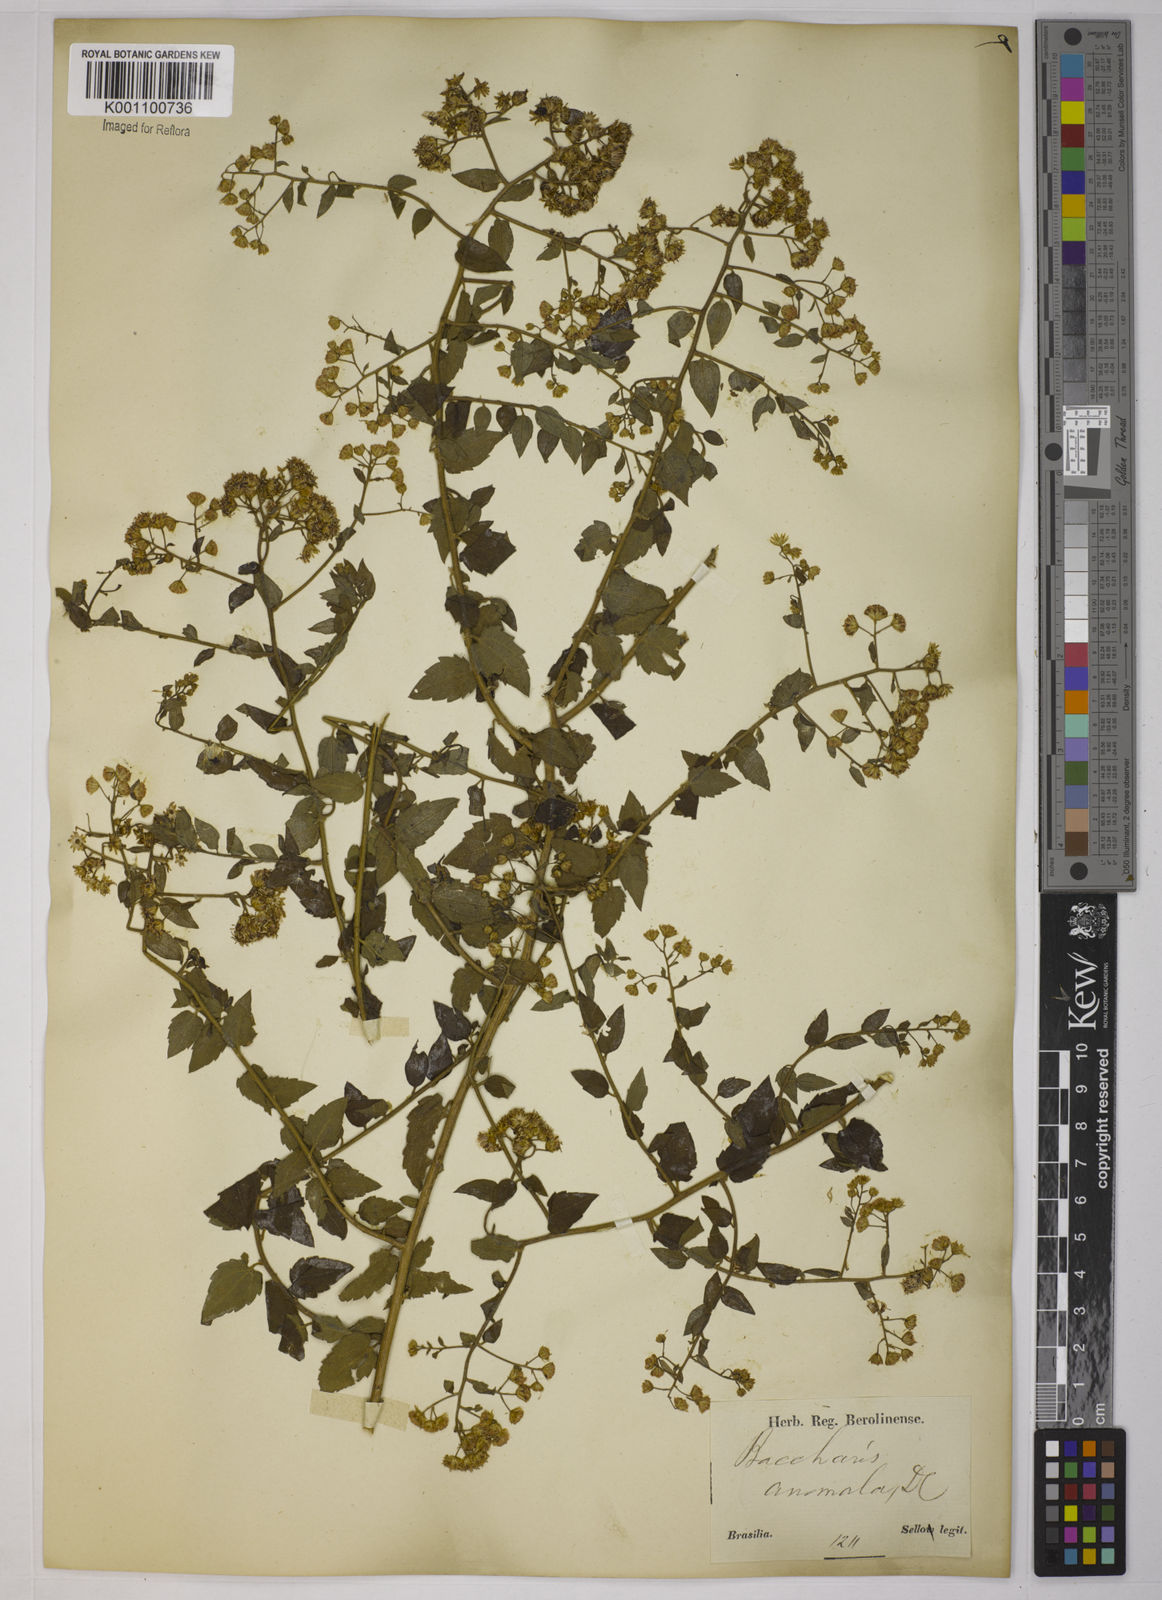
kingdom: Plantae
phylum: Tracheophyta
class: Magnoliopsida
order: Asterales
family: Asteraceae
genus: Baccharis
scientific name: Baccharis anomala
